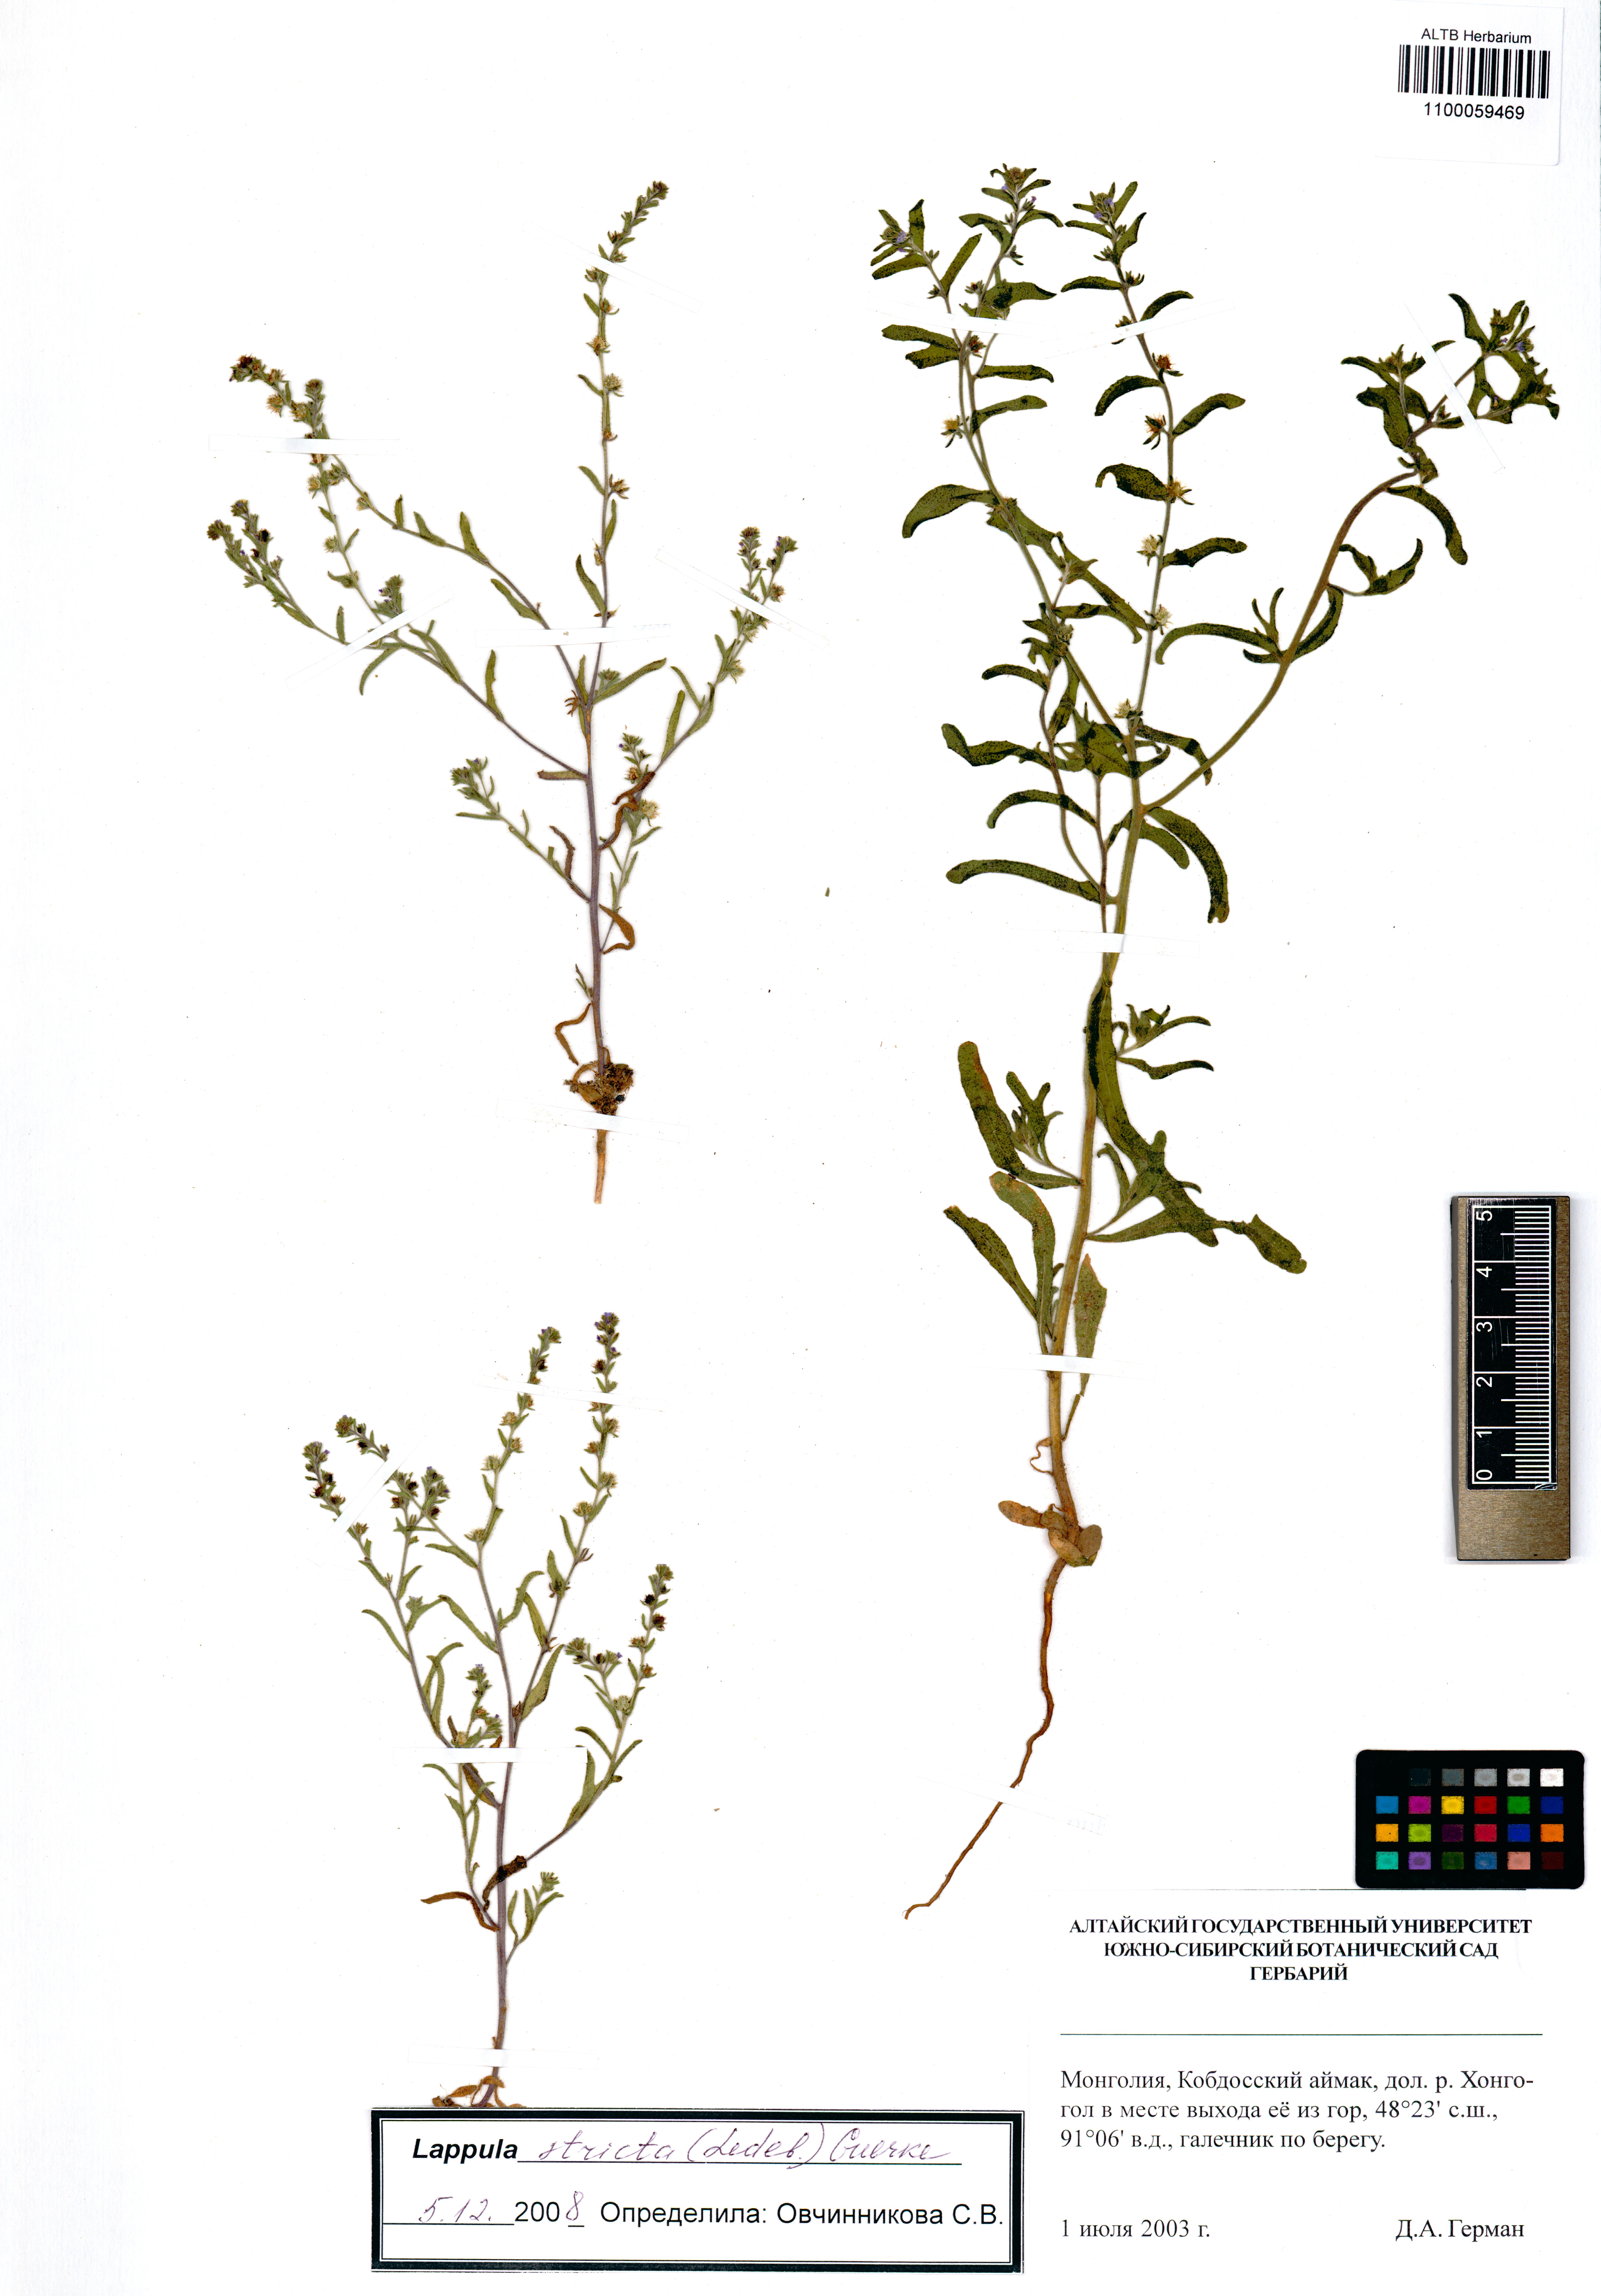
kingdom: Plantae
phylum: Tracheophyta
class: Magnoliopsida
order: Boraginales
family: Boraginaceae
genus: Lappula
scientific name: Lappula stricta
